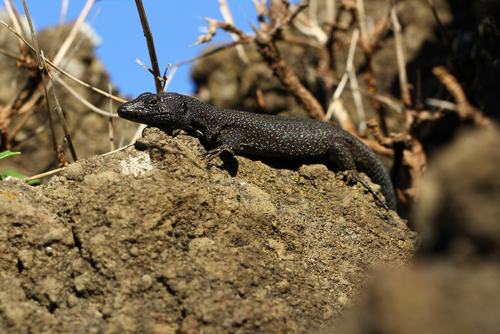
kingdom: Animalia
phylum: Chordata
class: Squamata
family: Lacertidae
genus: Teira
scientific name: Teira dugesii
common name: Madeira lizard
